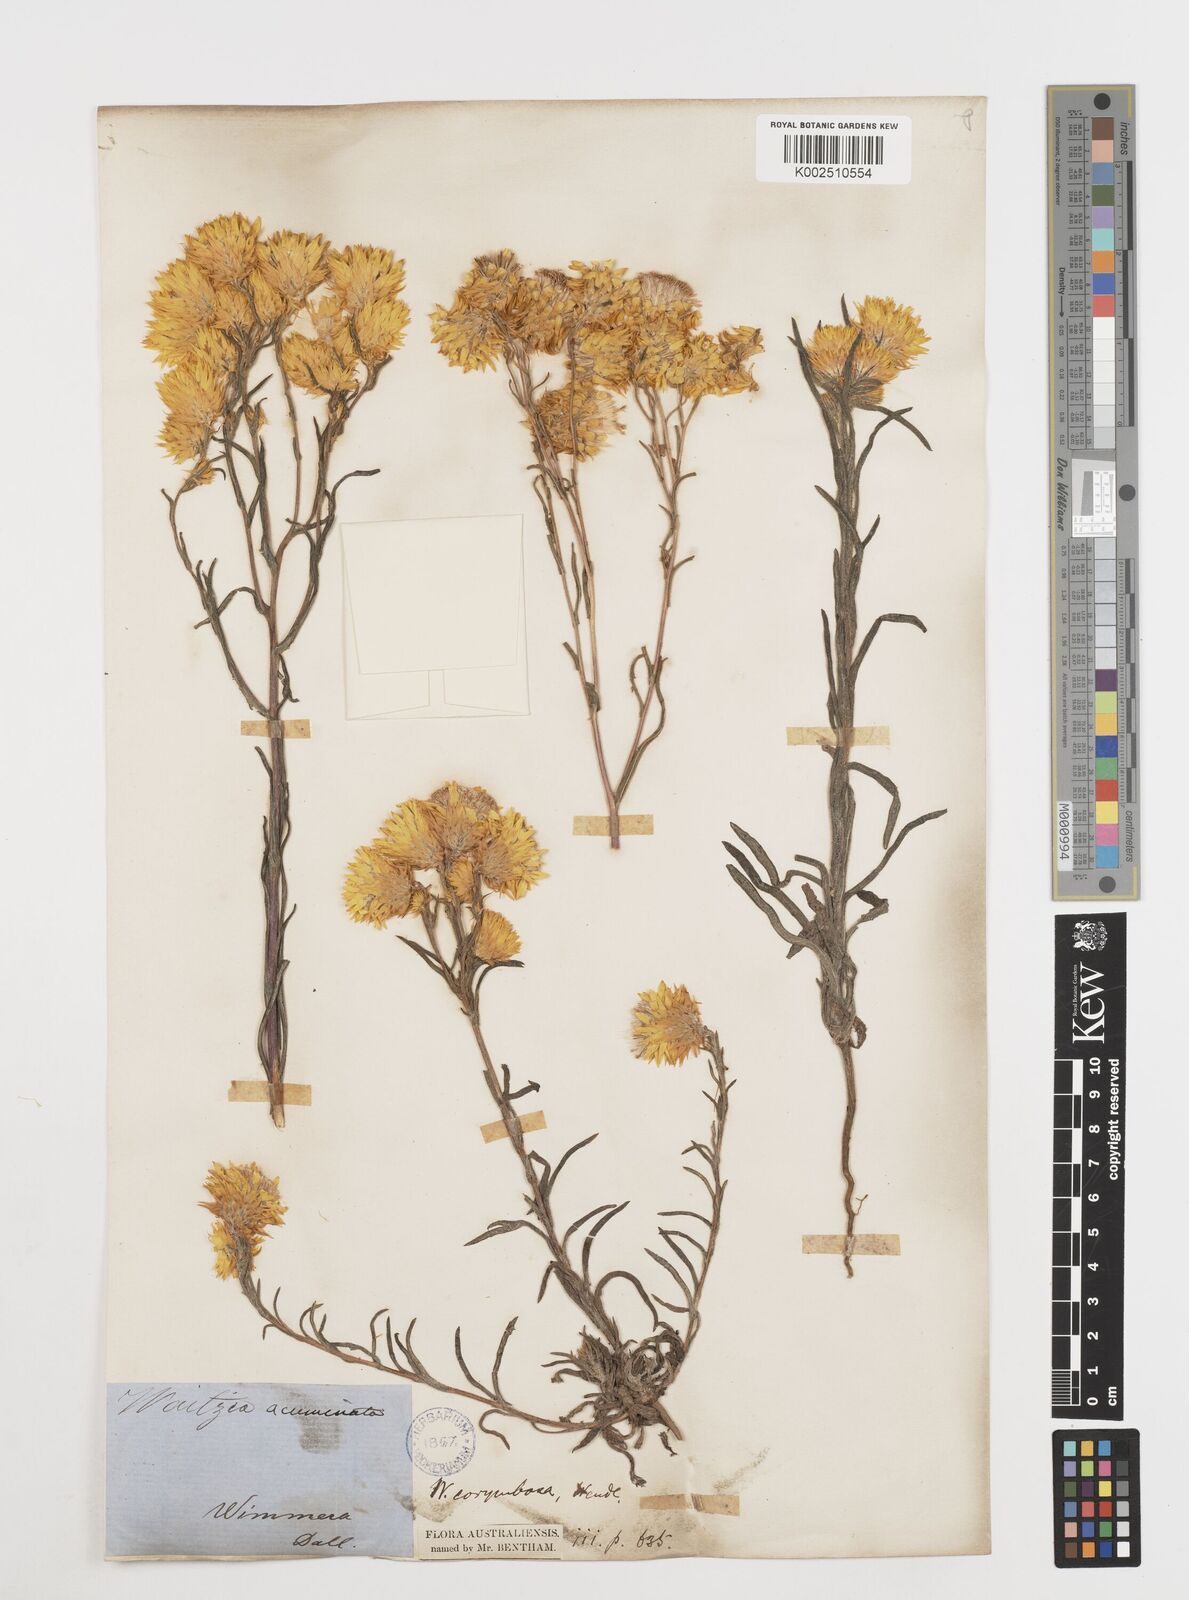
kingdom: Plantae
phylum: Tracheophyta
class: Magnoliopsida
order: Asterales
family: Asteraceae
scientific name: Asteraceae
